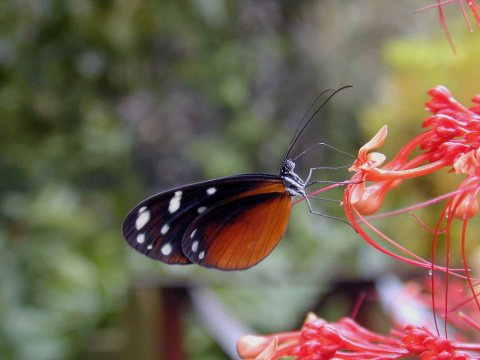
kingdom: Animalia
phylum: Arthropoda
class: Insecta
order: Lepidoptera
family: Nymphalidae
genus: Hyposcada
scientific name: Hyposcada virginiana
